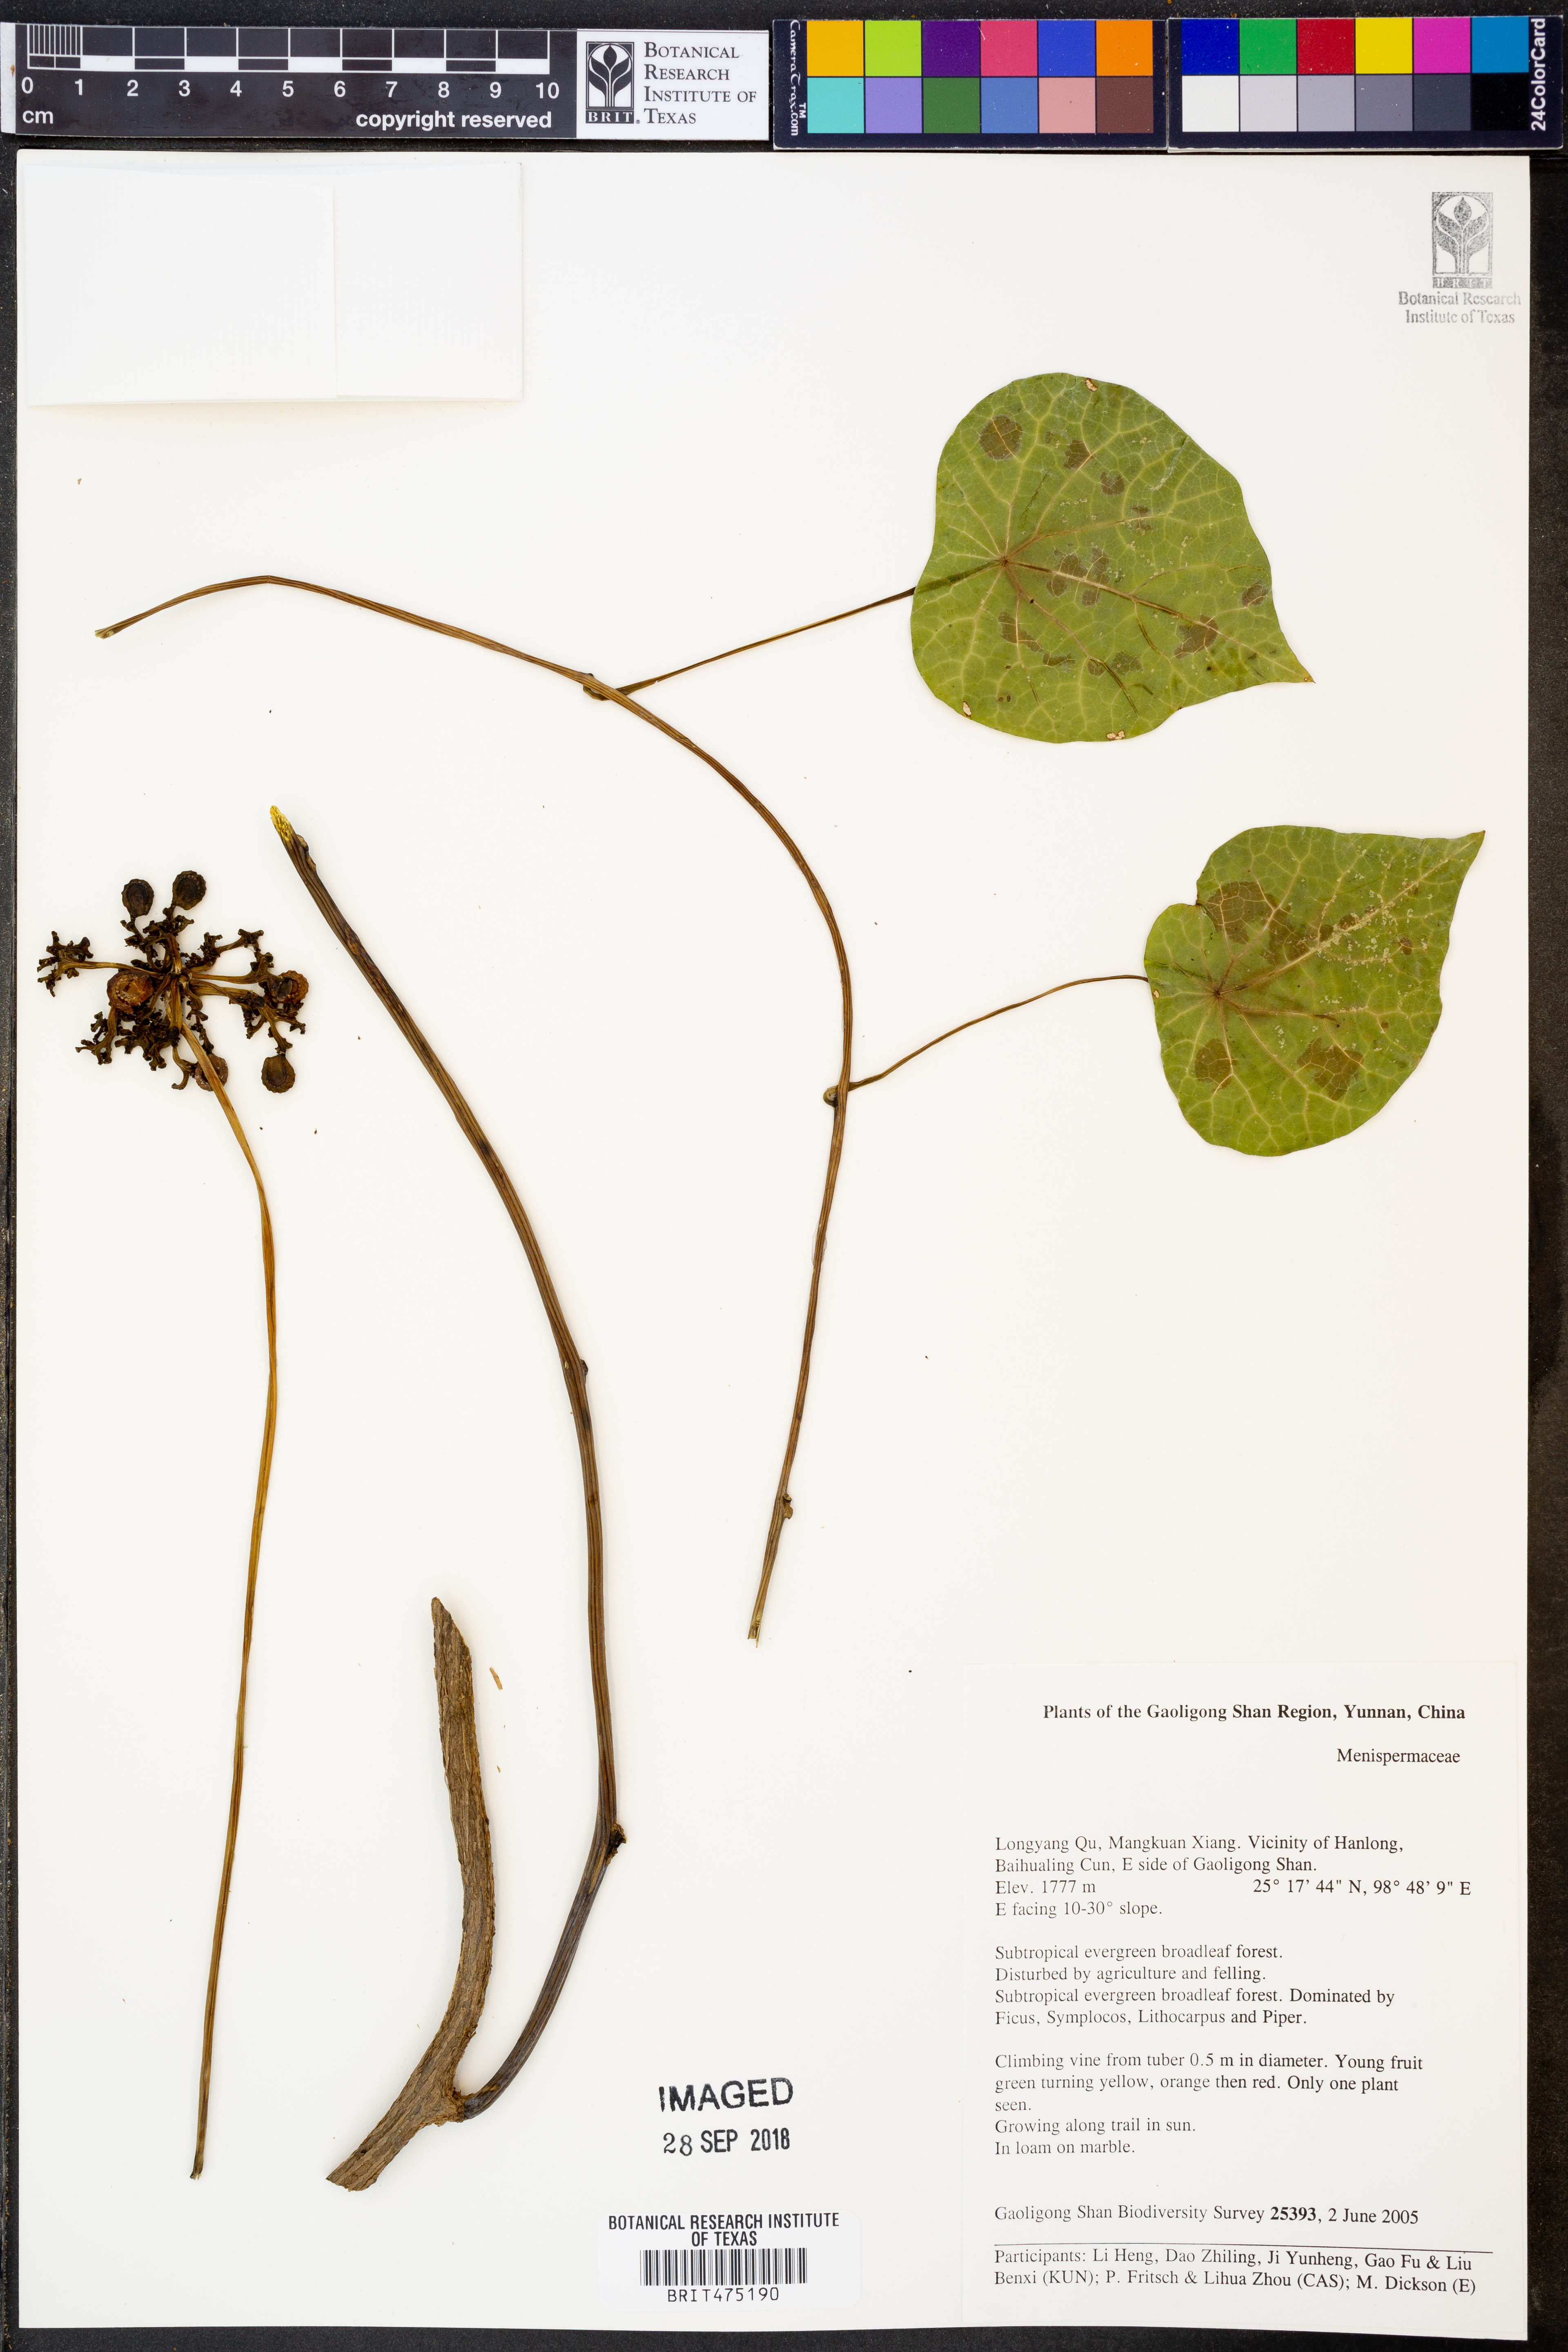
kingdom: Plantae
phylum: Tracheophyta
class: Magnoliopsida
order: Ranunculales
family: Menispermaceae
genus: Stephania
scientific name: Stephania
